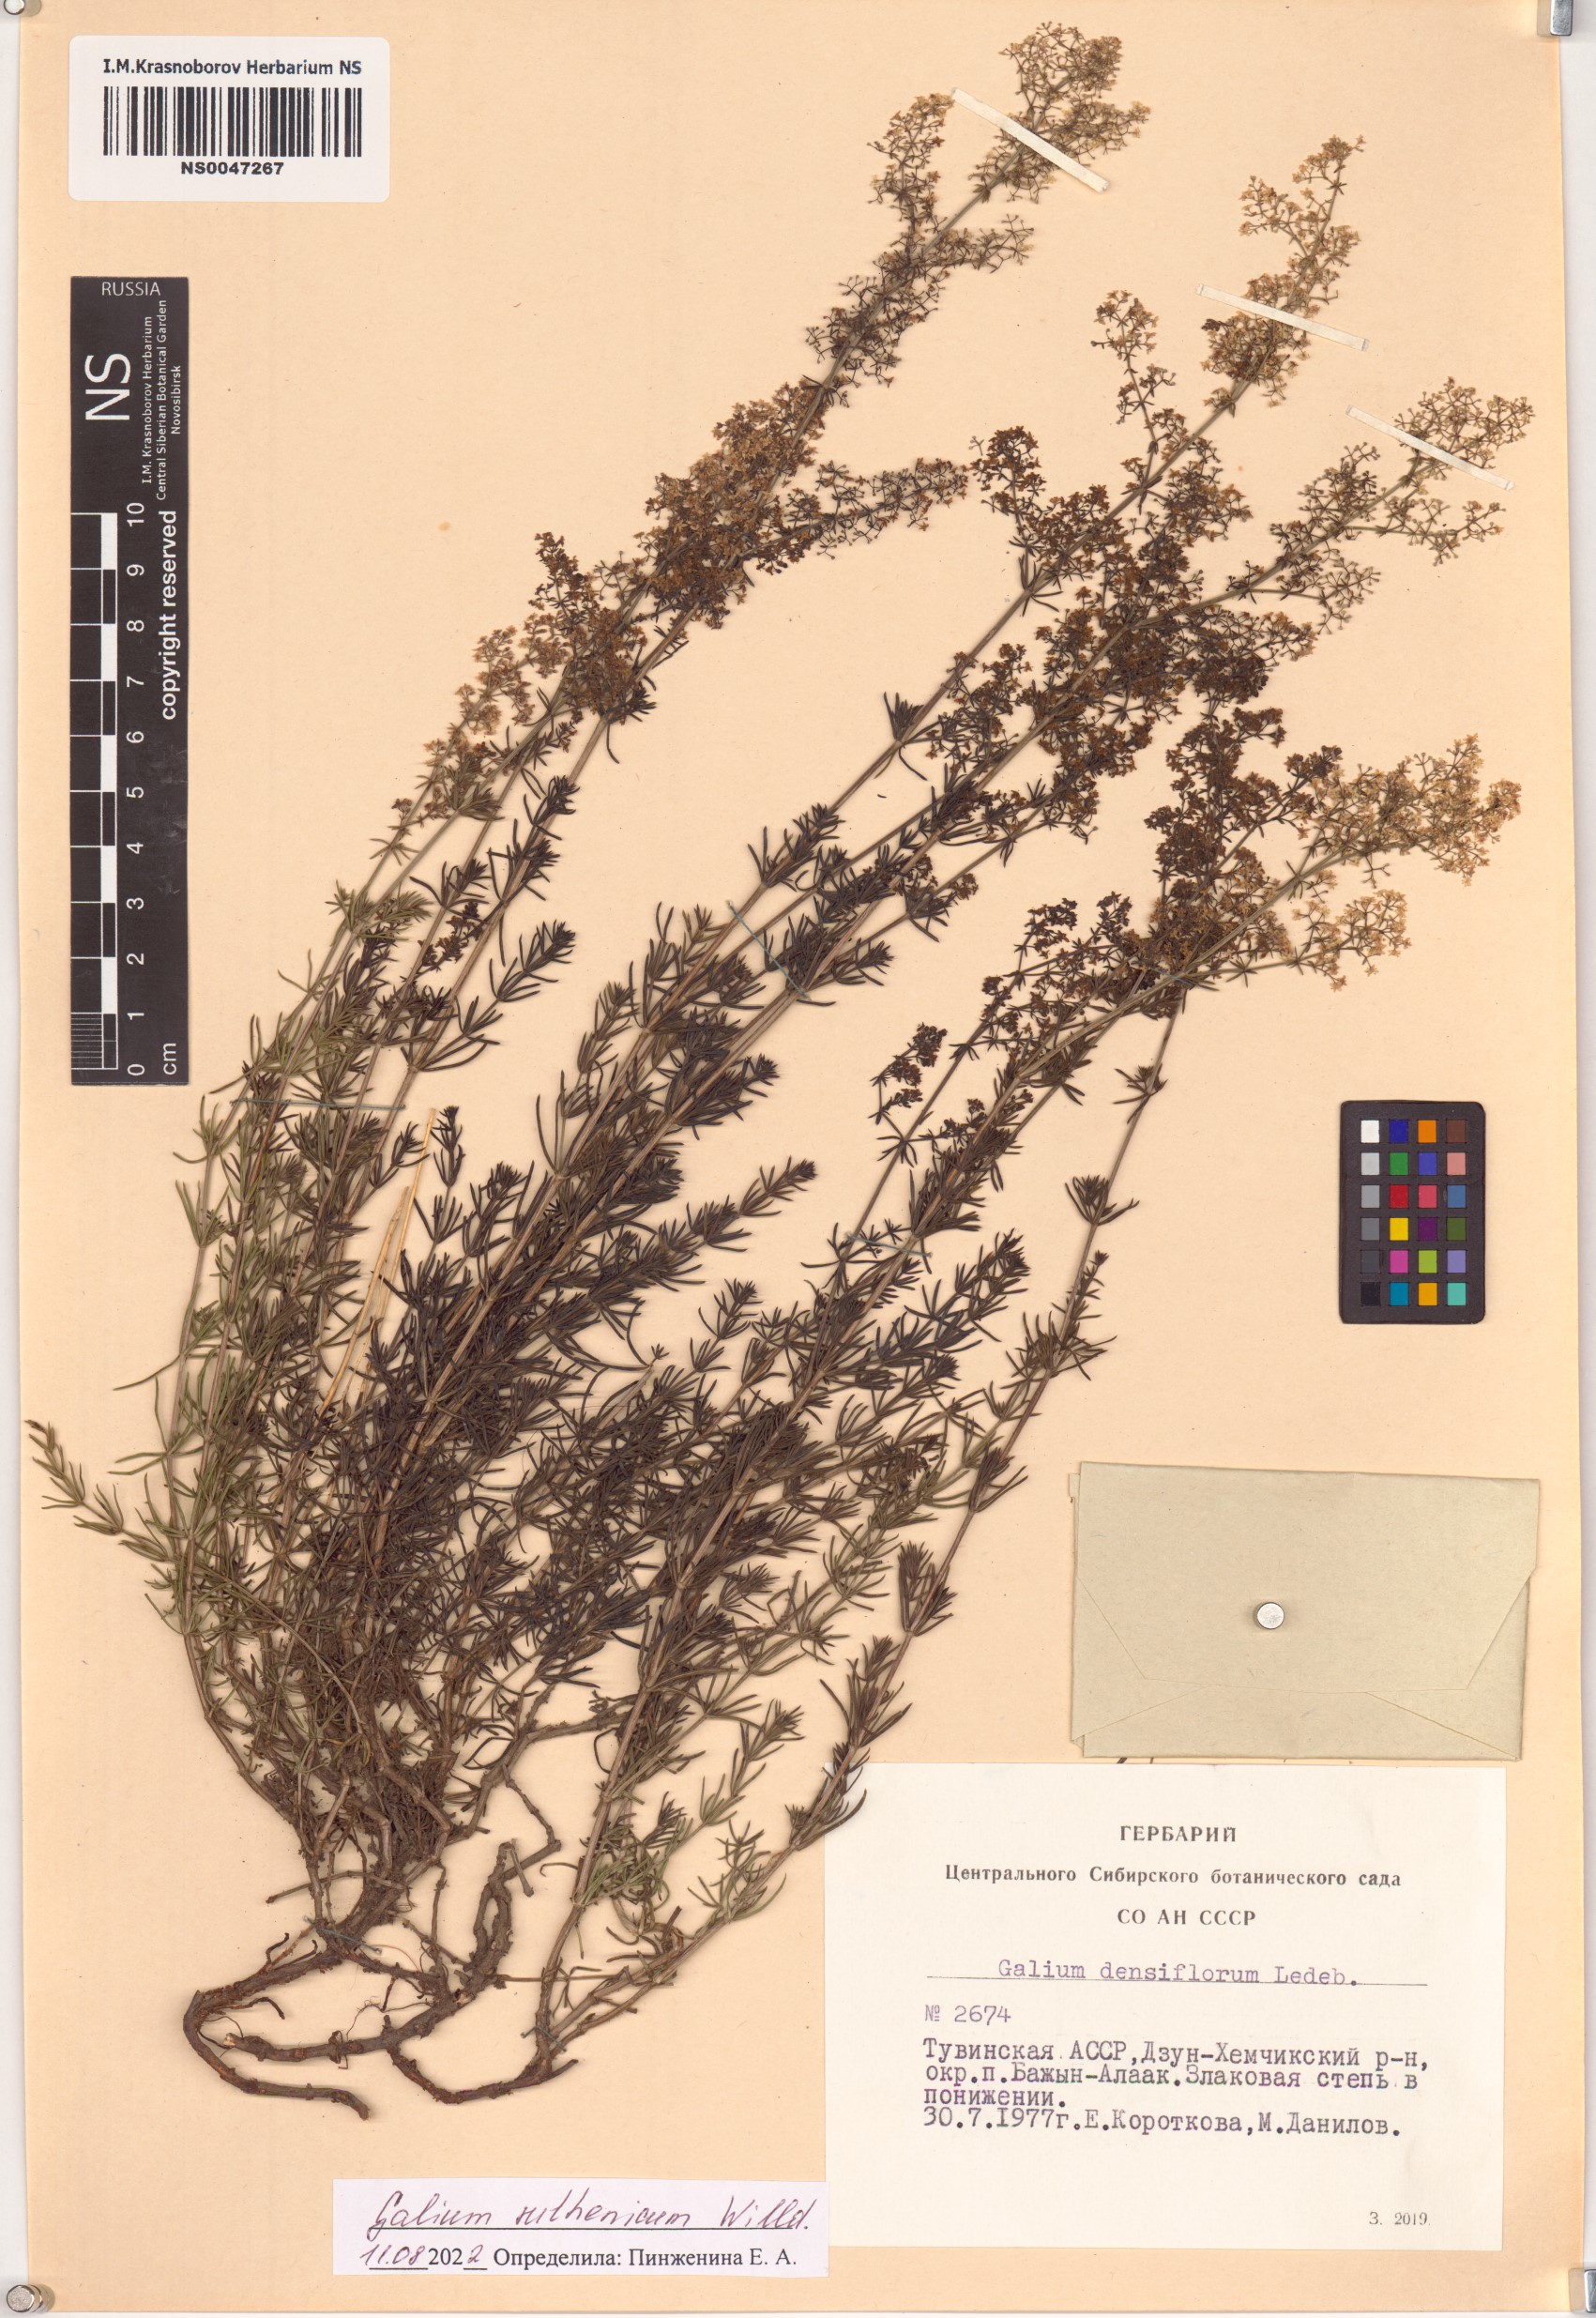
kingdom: Plantae
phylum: Tracheophyta
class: Magnoliopsida
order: Gentianales
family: Rubiaceae
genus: Galium
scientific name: Galium verum
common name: Lady's bedstraw
